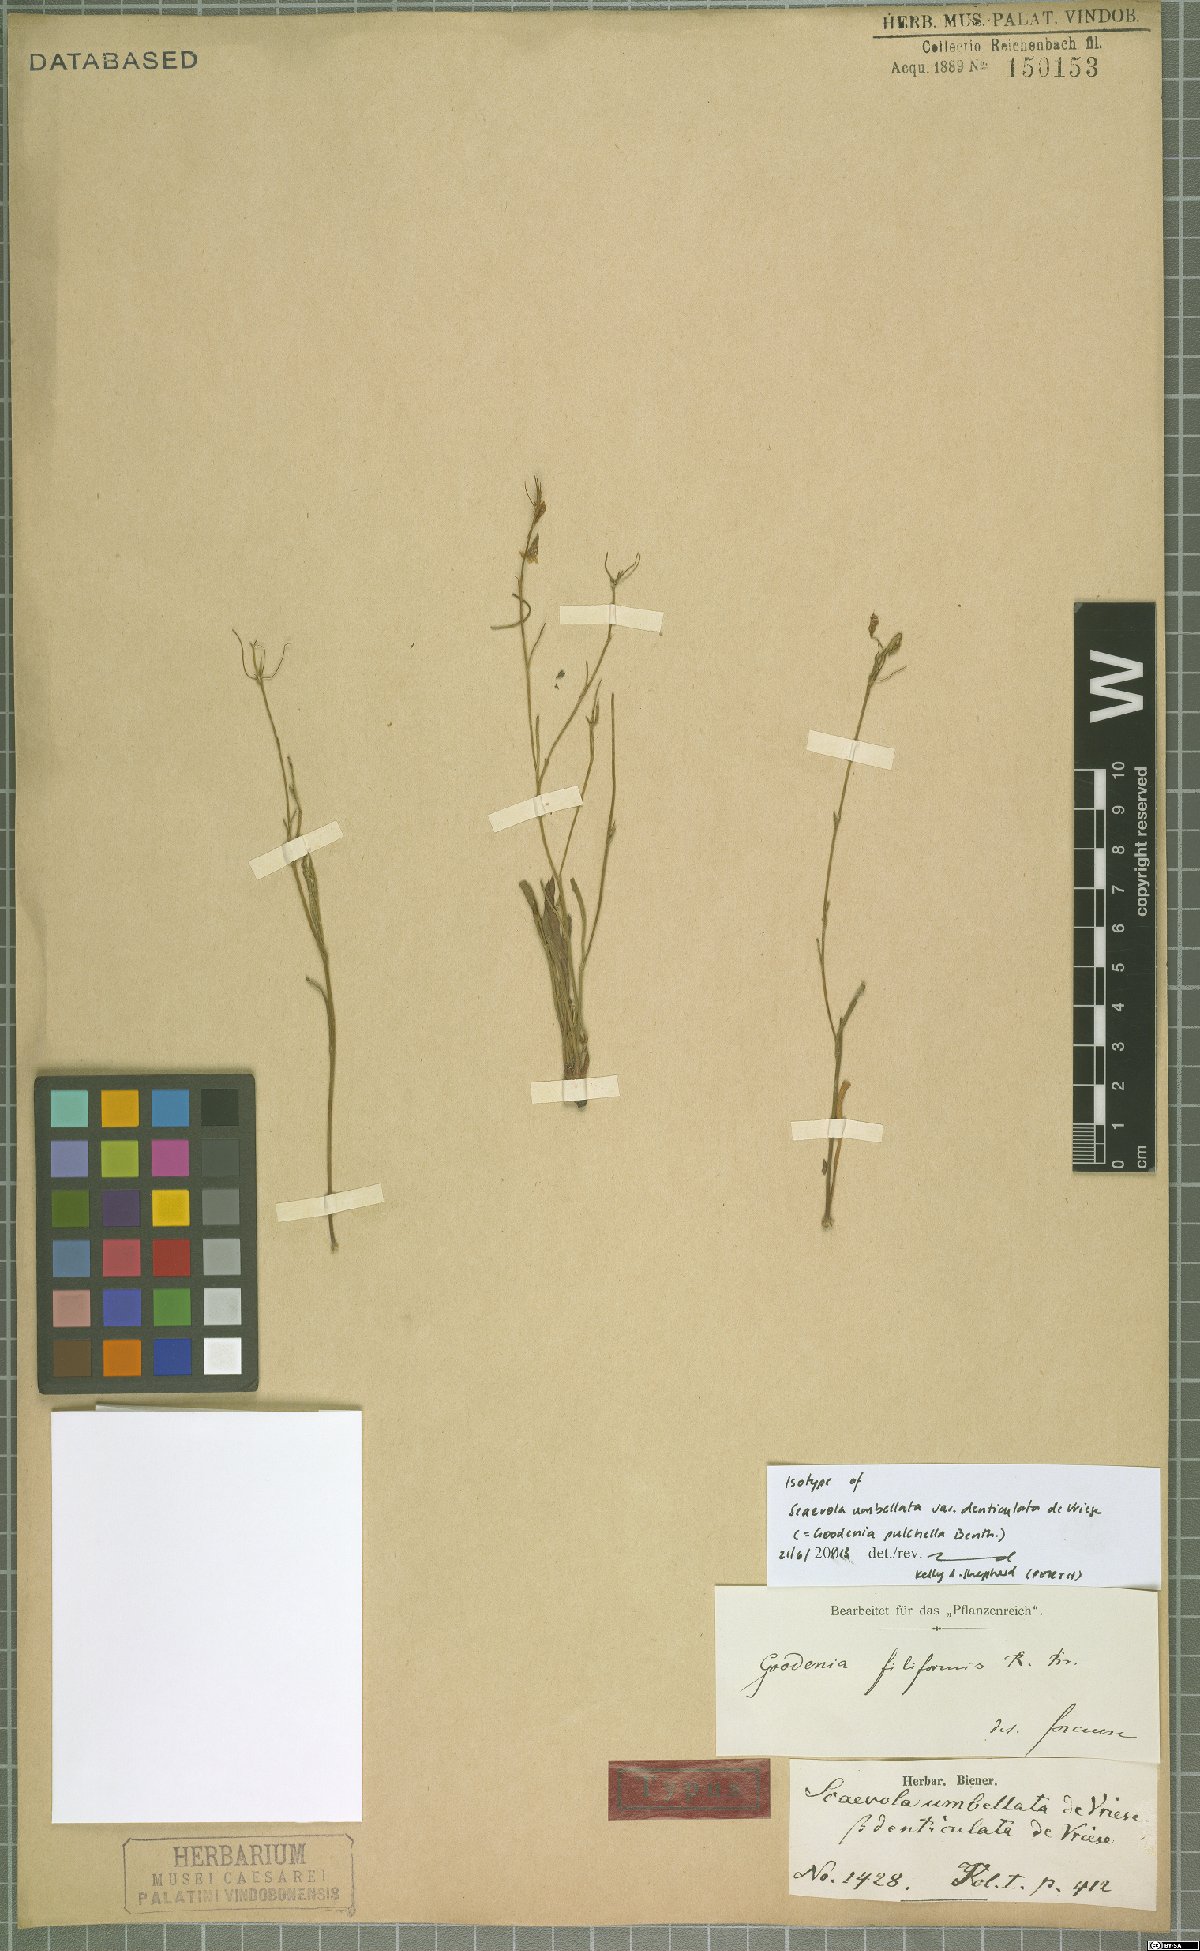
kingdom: Plantae
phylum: Tracheophyta
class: Magnoliopsida
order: Asterales
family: Goodeniaceae
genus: Goodenia
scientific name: Goodenia pulchella
